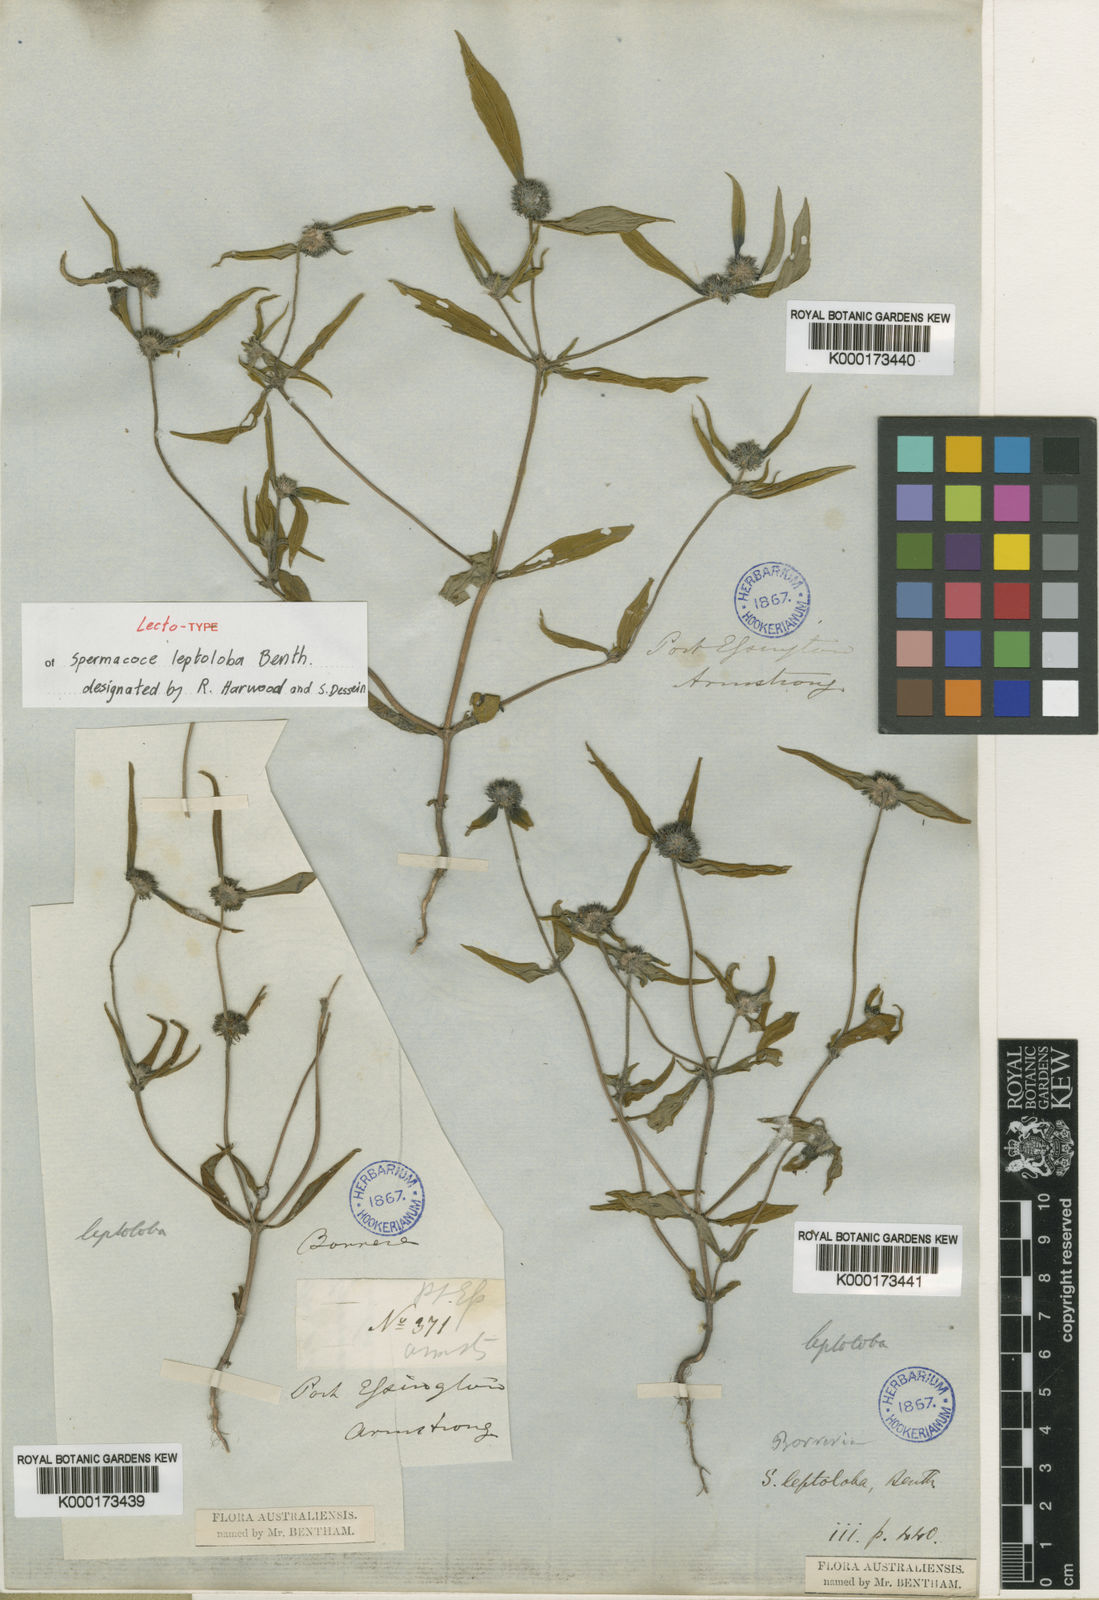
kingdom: Plantae
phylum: Tracheophyta
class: Magnoliopsida
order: Gentianales
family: Rubiaceae
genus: Spermacoce
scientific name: Spermacoce leptoloba
